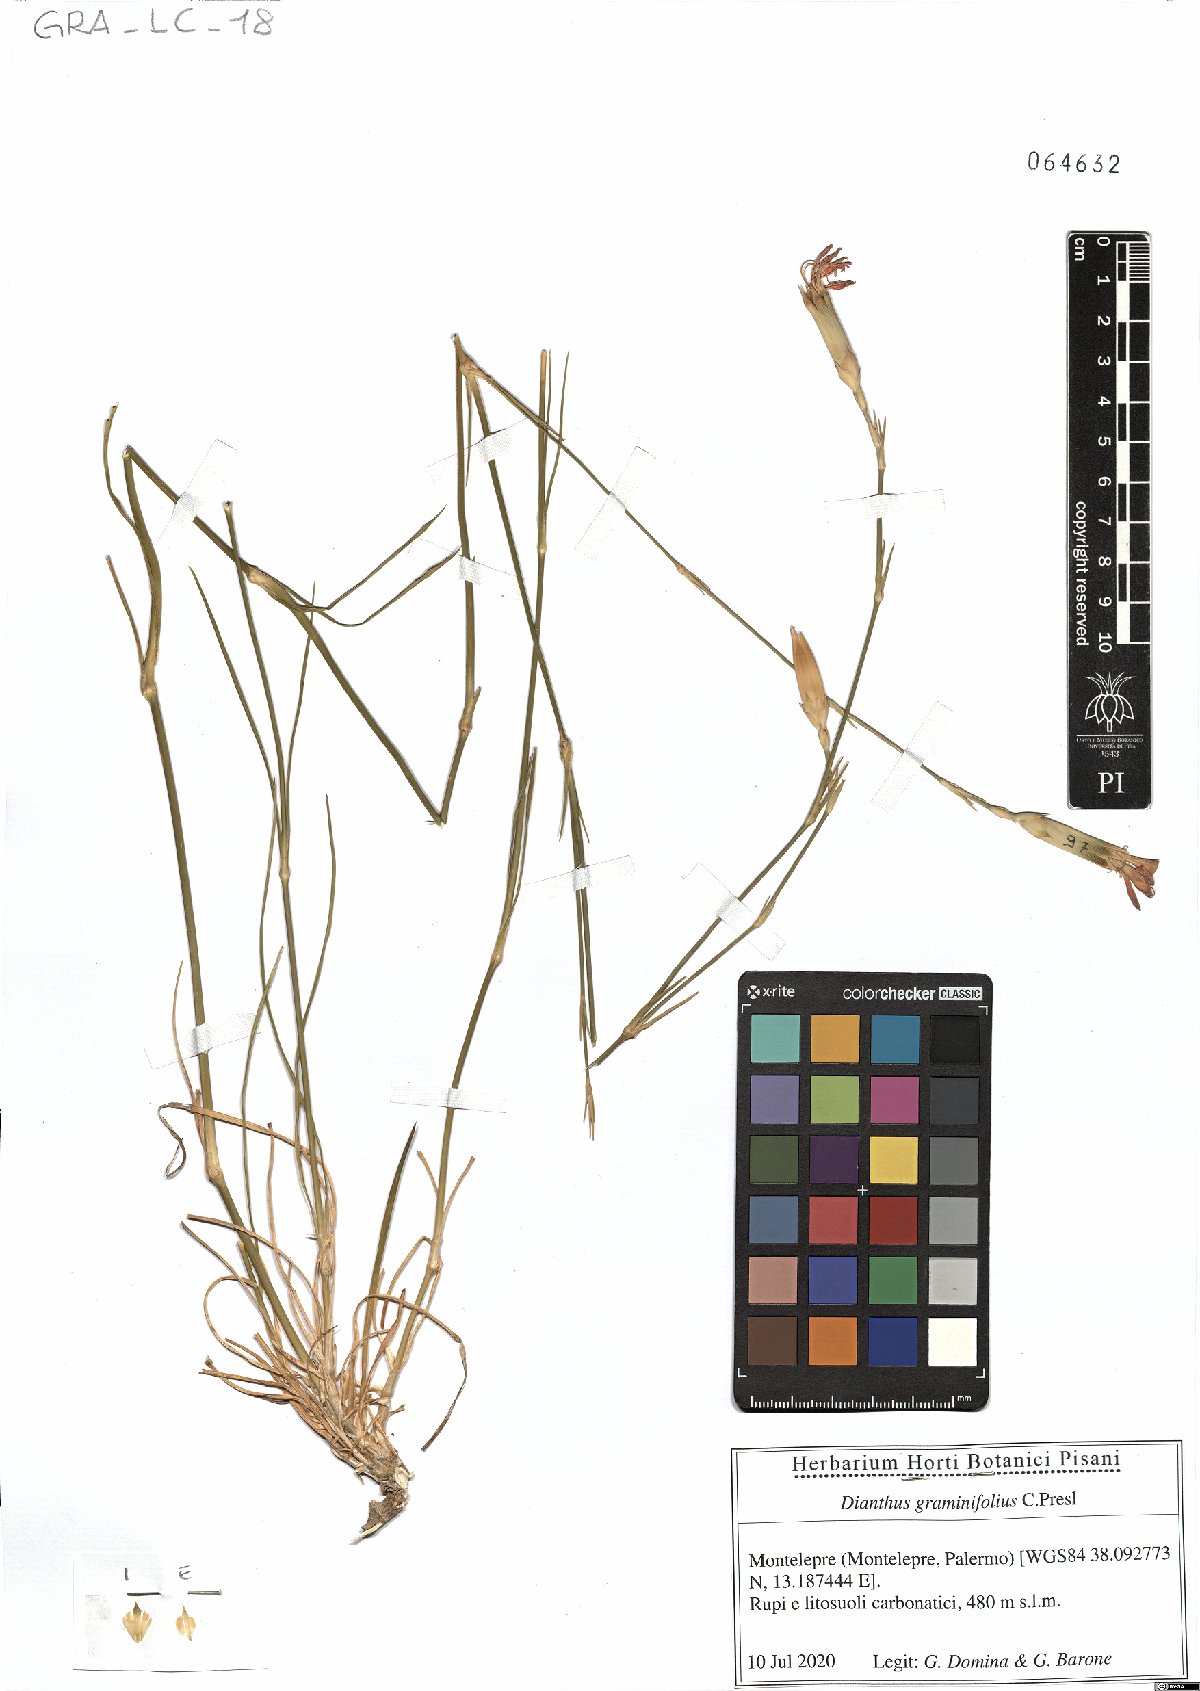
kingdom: Plantae
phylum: Tracheophyta
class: Magnoliopsida
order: Caryophyllales
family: Caryophyllaceae
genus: Dianthus
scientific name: Dianthus graminifolius
